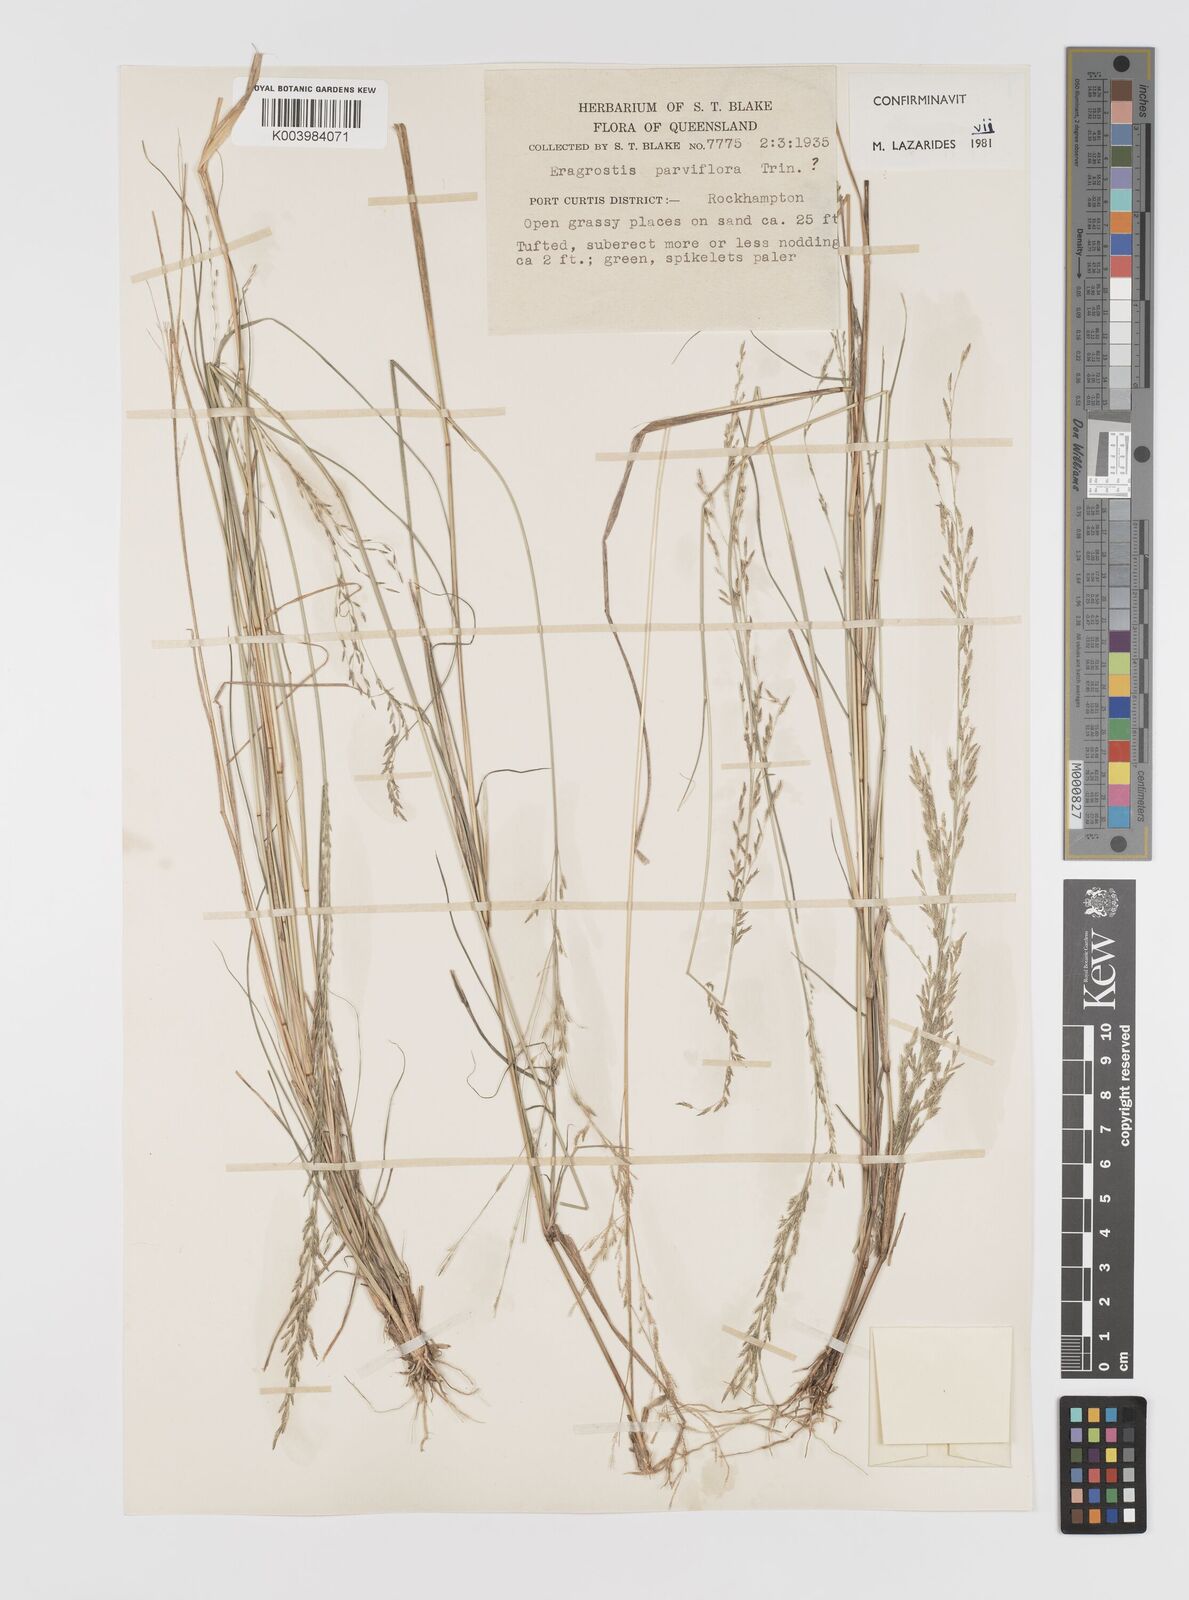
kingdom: Plantae
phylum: Tracheophyta
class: Liliopsida
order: Poales
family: Poaceae
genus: Eragrostis
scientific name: Eragrostis parviflora
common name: Weeping love-grass
